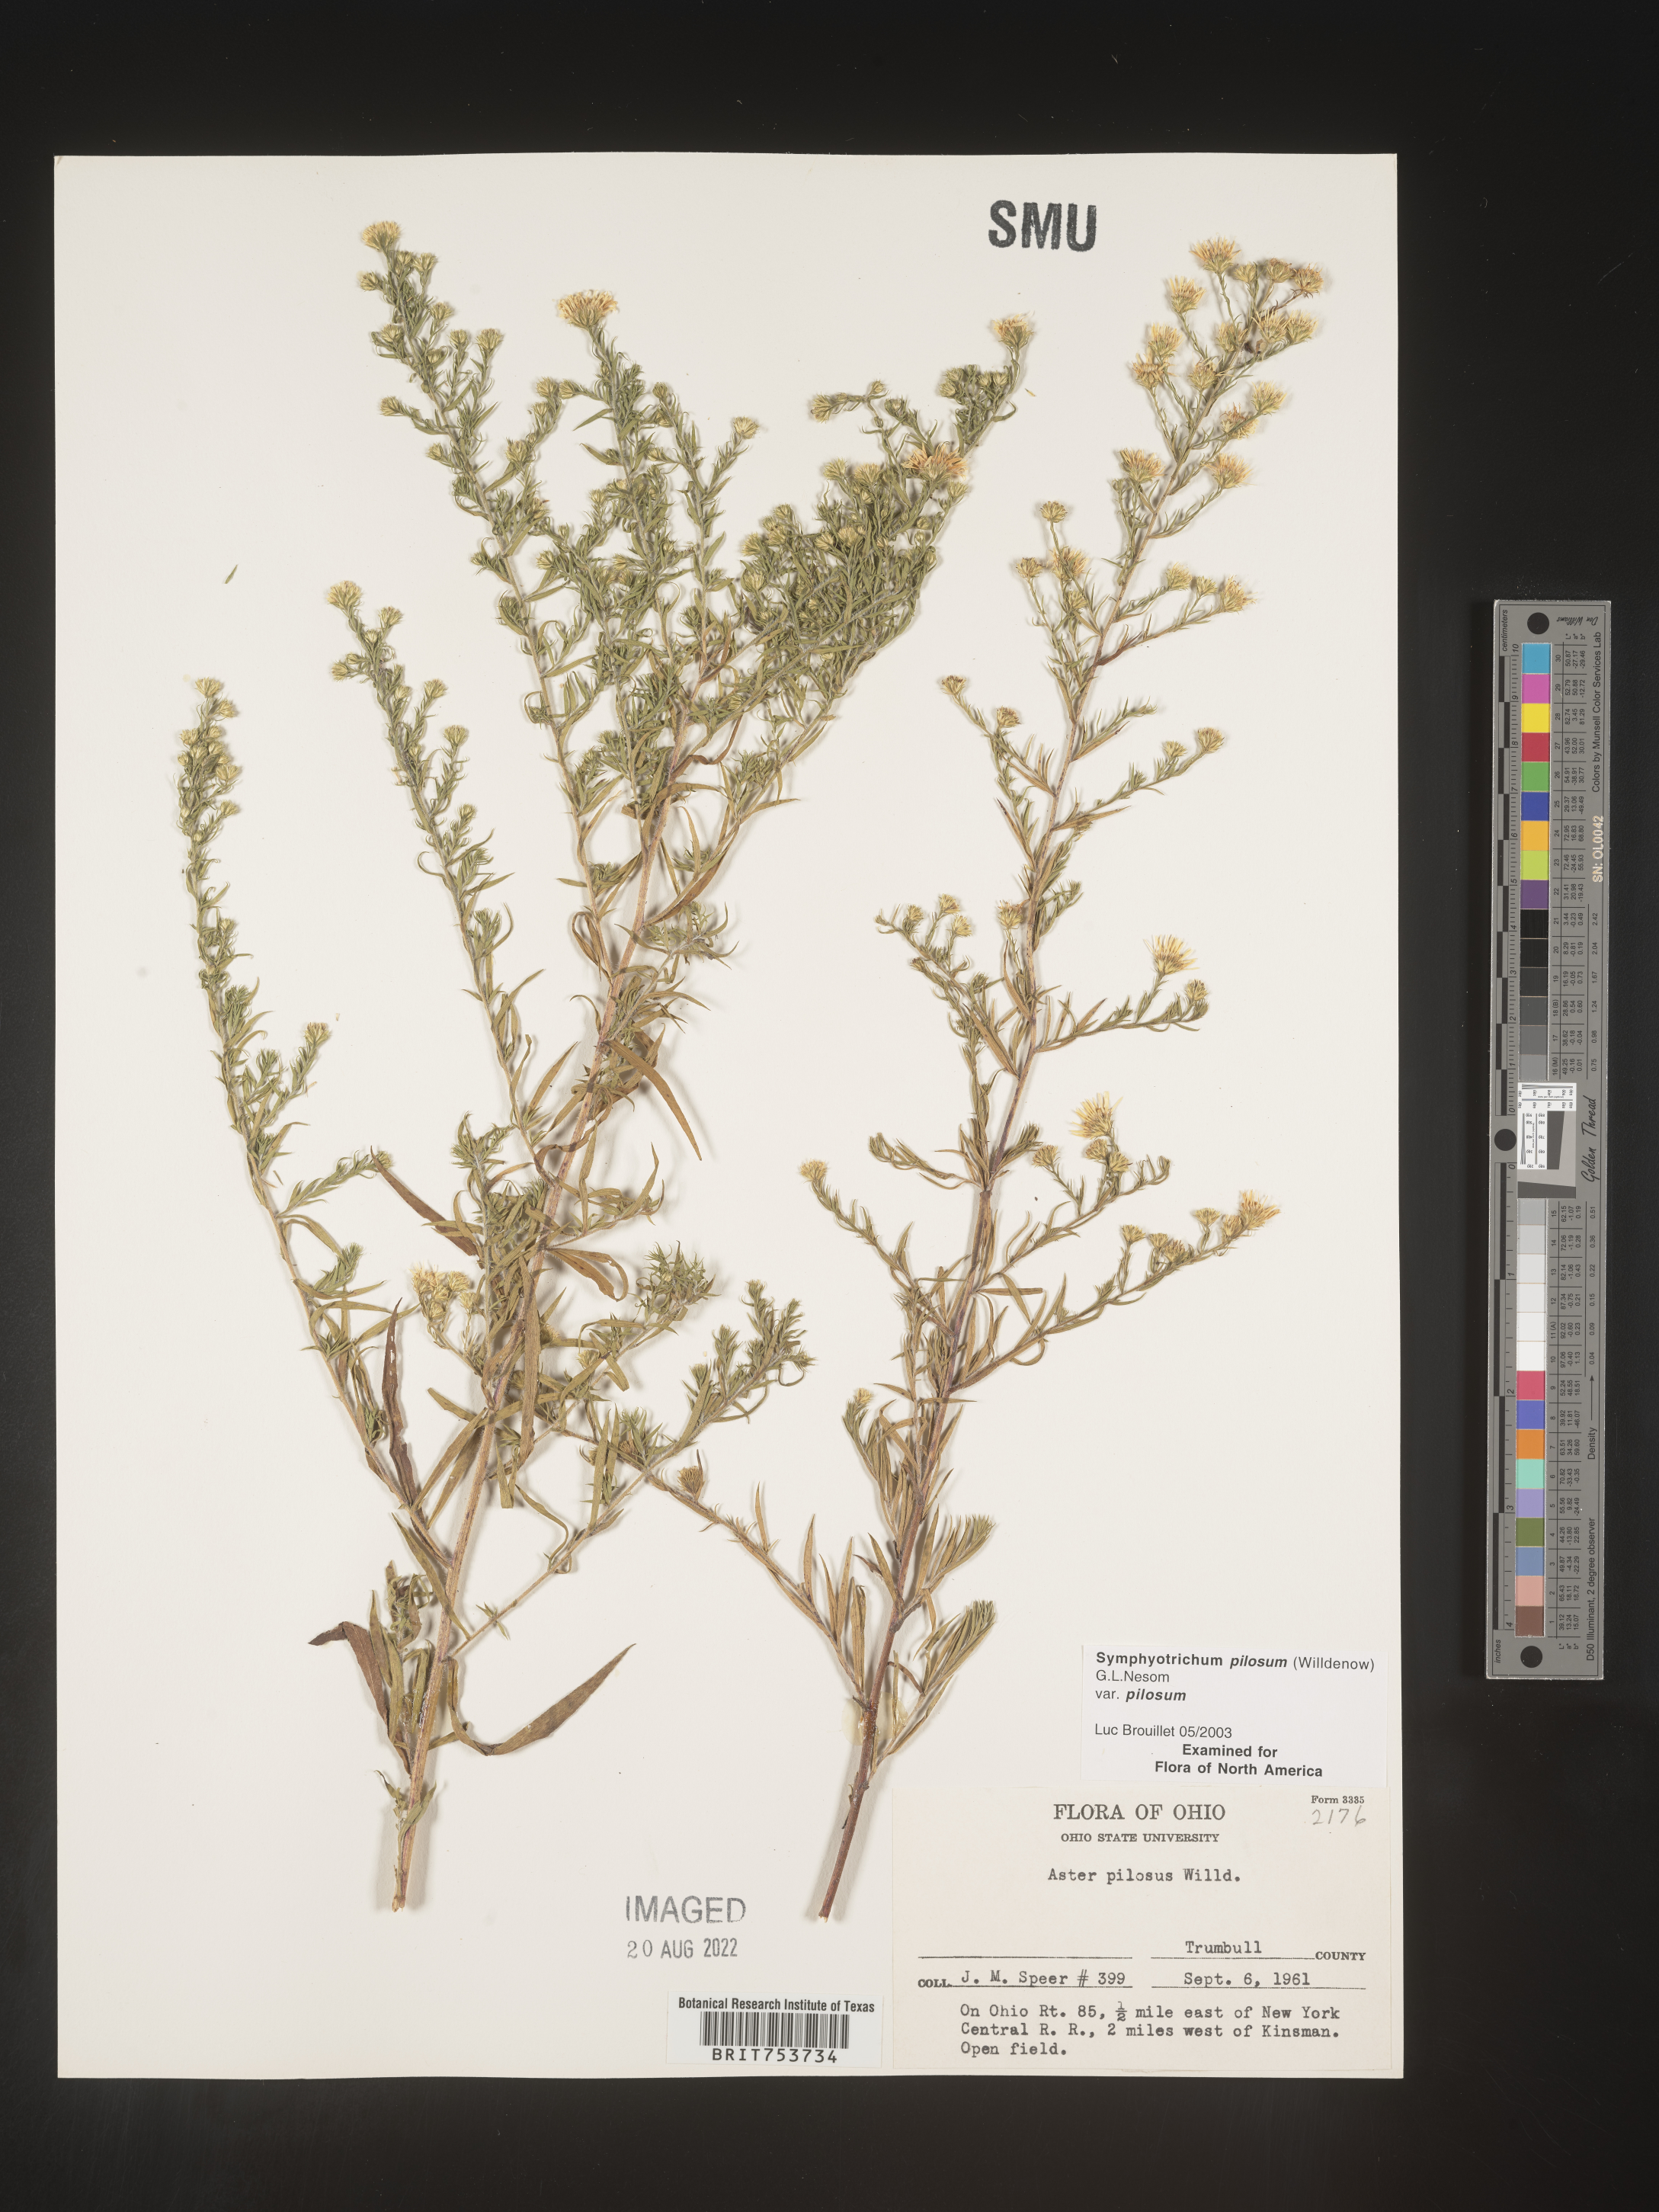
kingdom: Plantae
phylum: Tracheophyta
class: Magnoliopsida
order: Asterales
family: Asteraceae
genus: Symphyotrichum
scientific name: Symphyotrichum pilosum
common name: Awl aster
